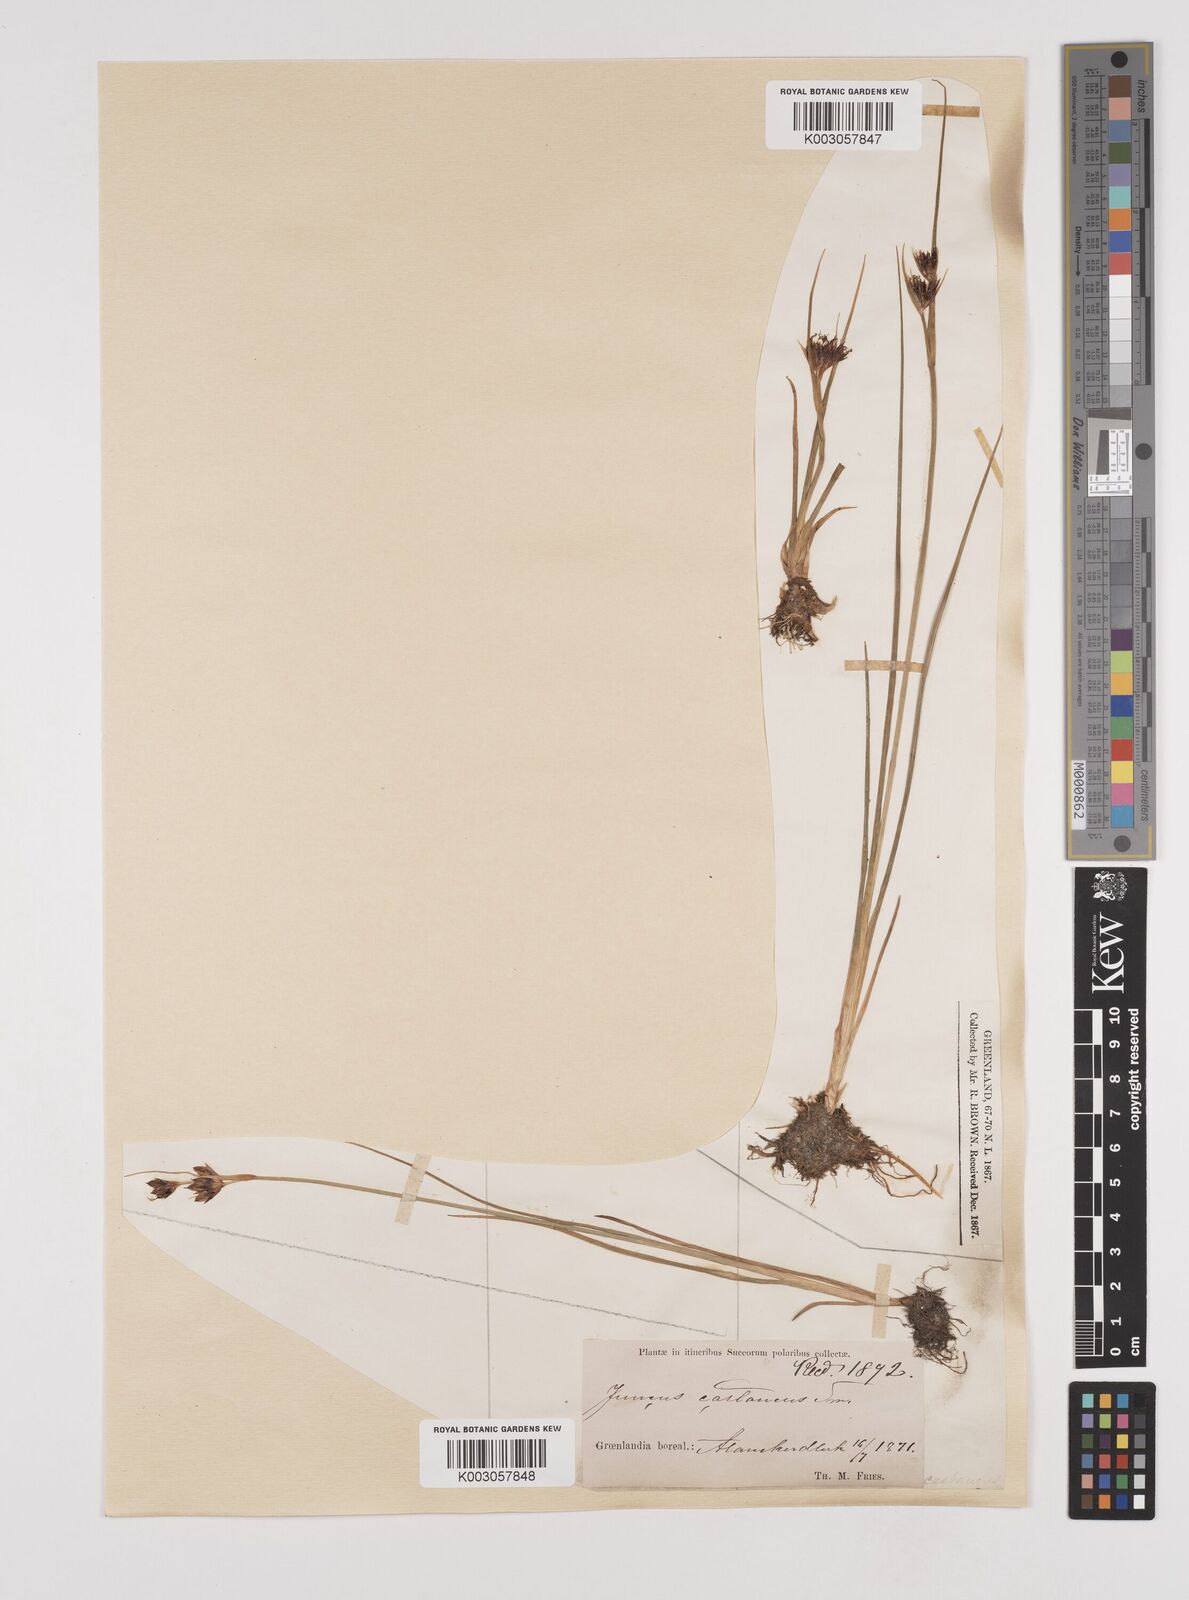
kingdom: Plantae
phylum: Tracheophyta
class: Liliopsida
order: Poales
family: Juncaceae
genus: Juncus
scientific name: Juncus castaneus
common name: Chestnut rush
